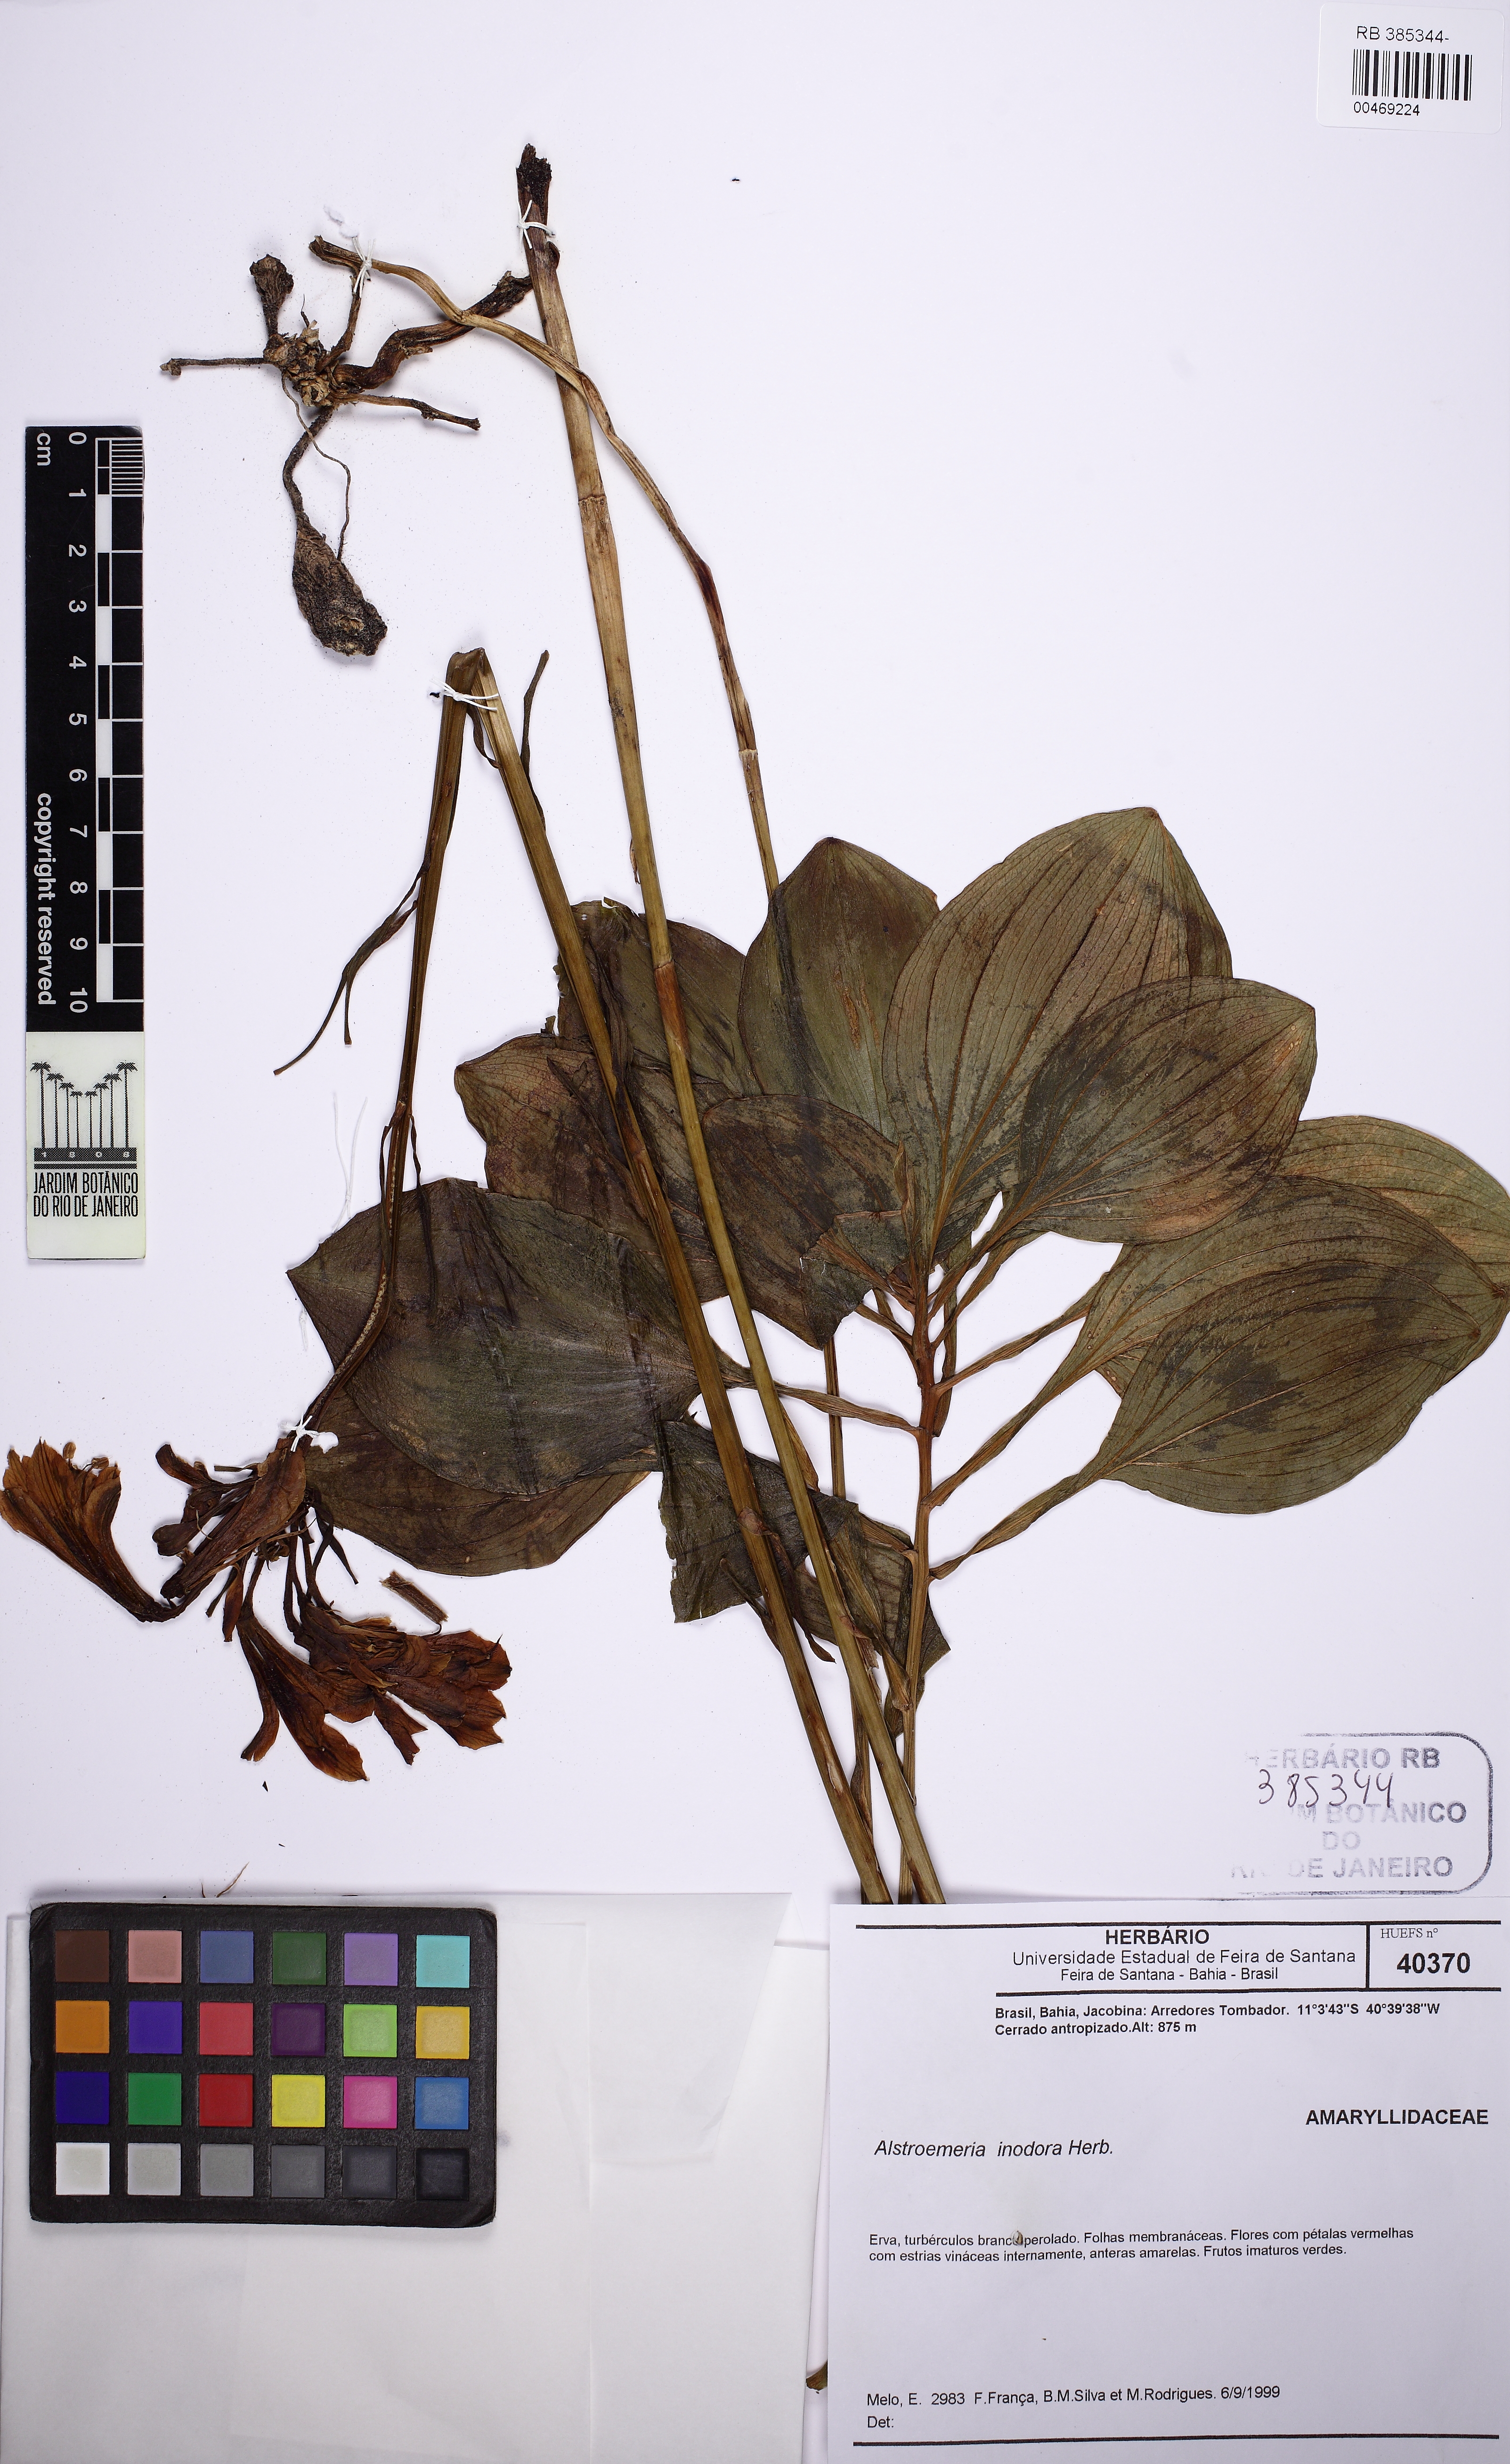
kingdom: Plantae
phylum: Tracheophyta
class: Liliopsida
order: Liliales
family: Alstroemeriaceae
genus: Alstroemeria
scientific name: Alstroemeria inodora
